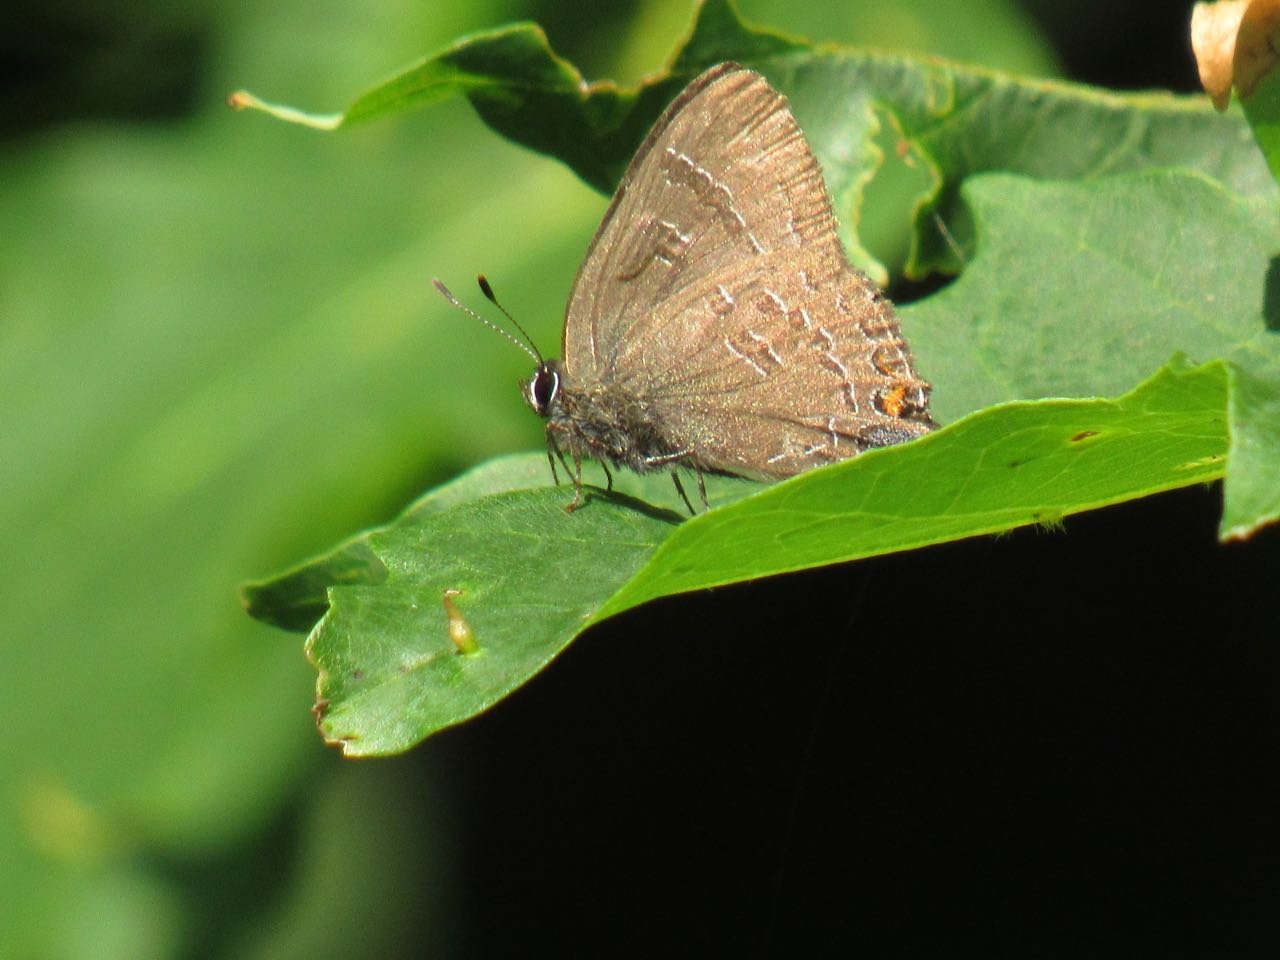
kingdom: Animalia
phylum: Arthropoda
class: Insecta
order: Lepidoptera
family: Lycaenidae
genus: Satyrium
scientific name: Satyrium calanus
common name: Banded Hairstreak
